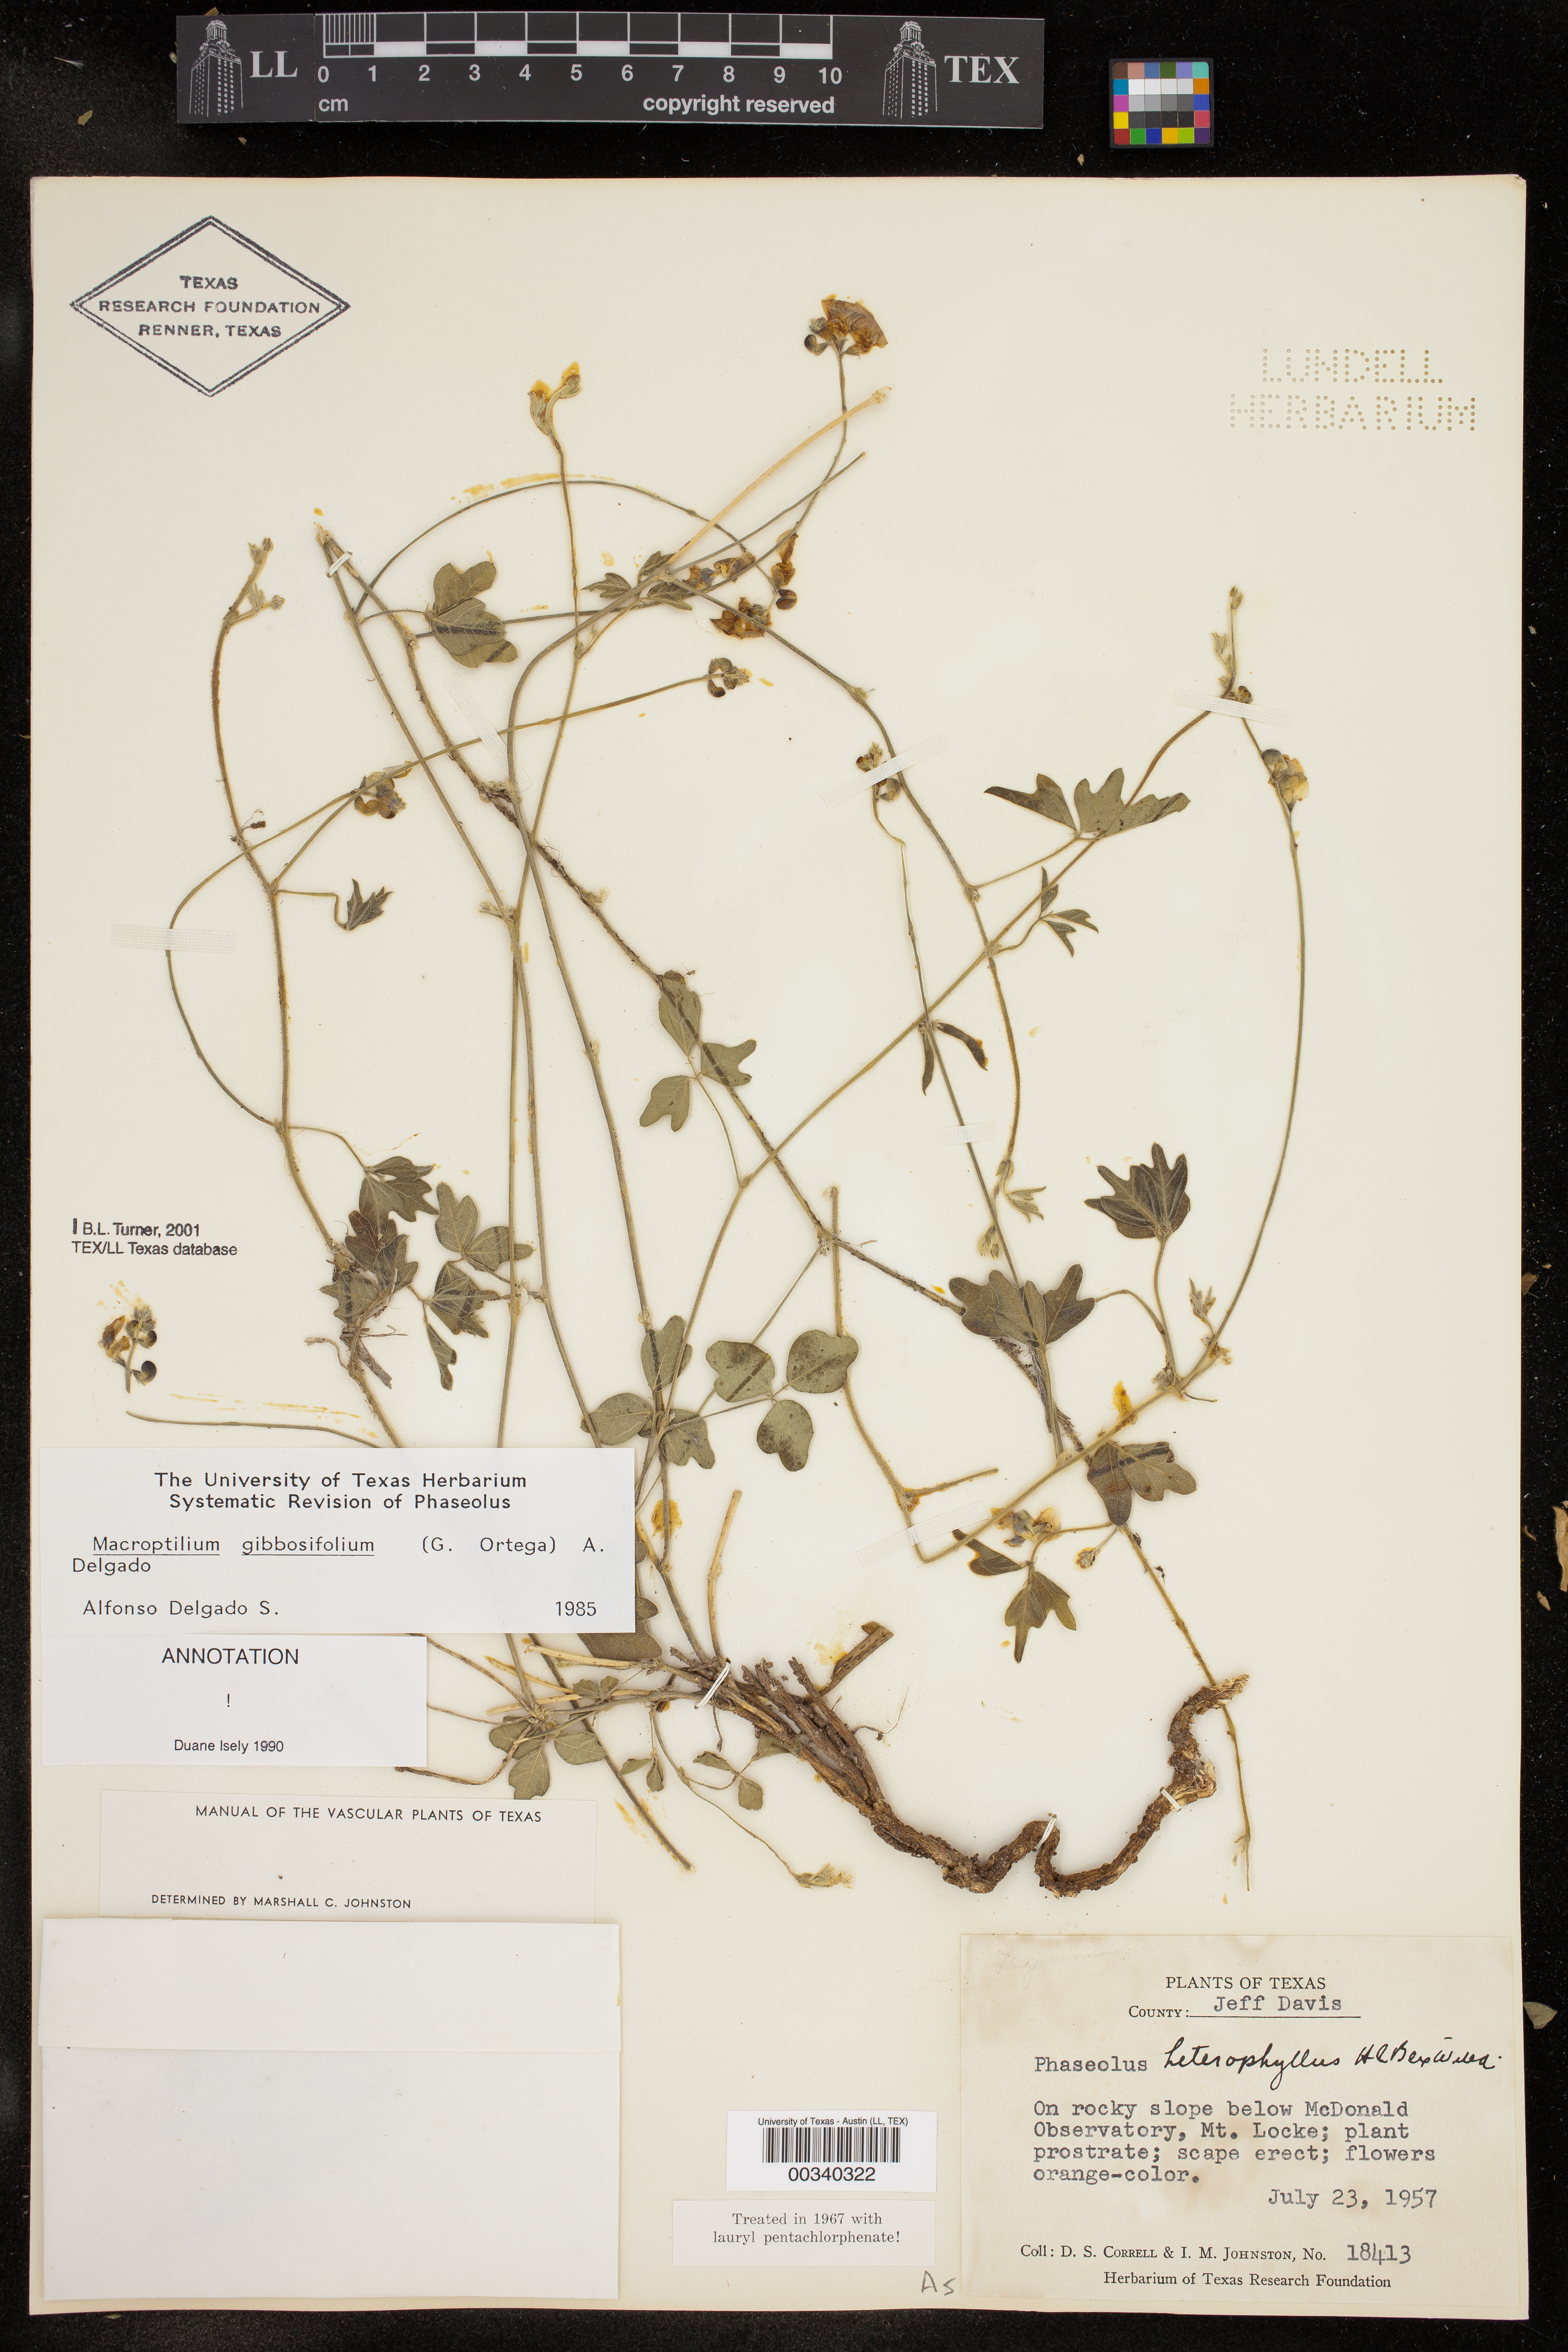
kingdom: Plantae
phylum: Tracheophyta
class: Magnoliopsida
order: Fabales
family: Fabaceae
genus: Macroptilium
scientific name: Macroptilium gibbosifolium
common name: Variableleaf bushbean
